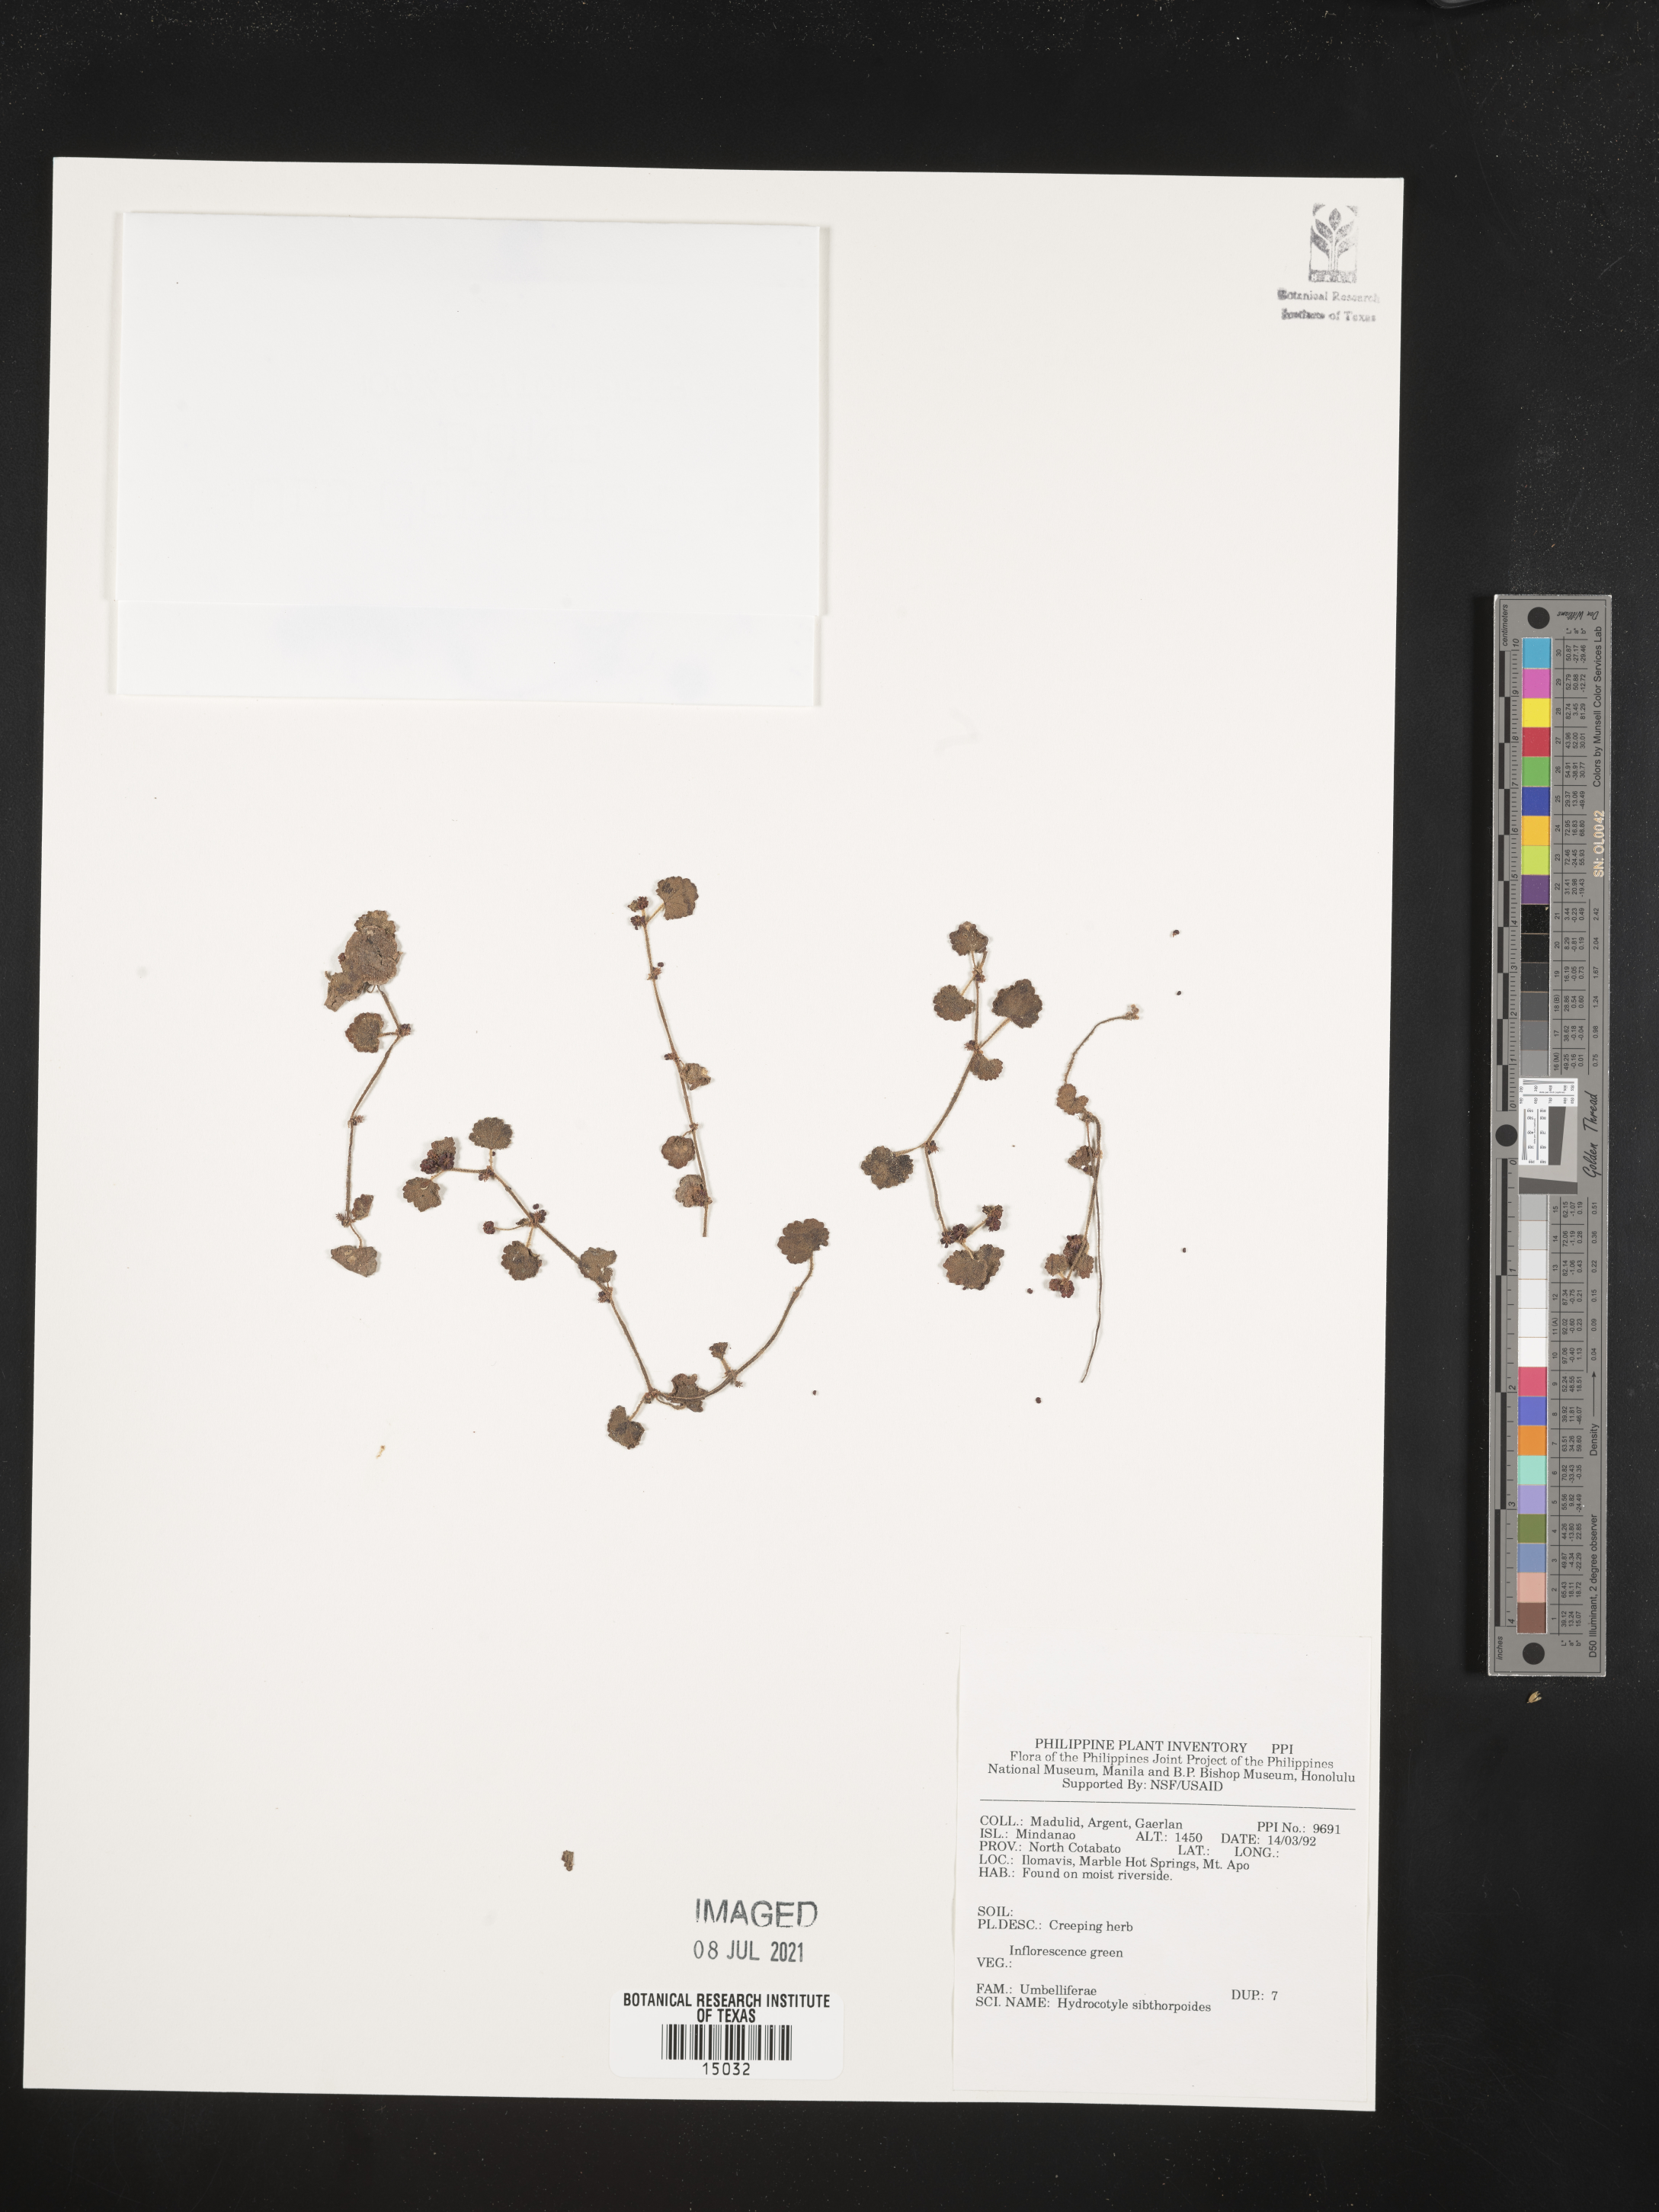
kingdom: Plantae
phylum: Tracheophyta
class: Magnoliopsida
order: Apiales
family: Araliaceae
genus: Hydrocotyle
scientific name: Hydrocotyle sibthorpioides
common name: Lawn marshpennywort
